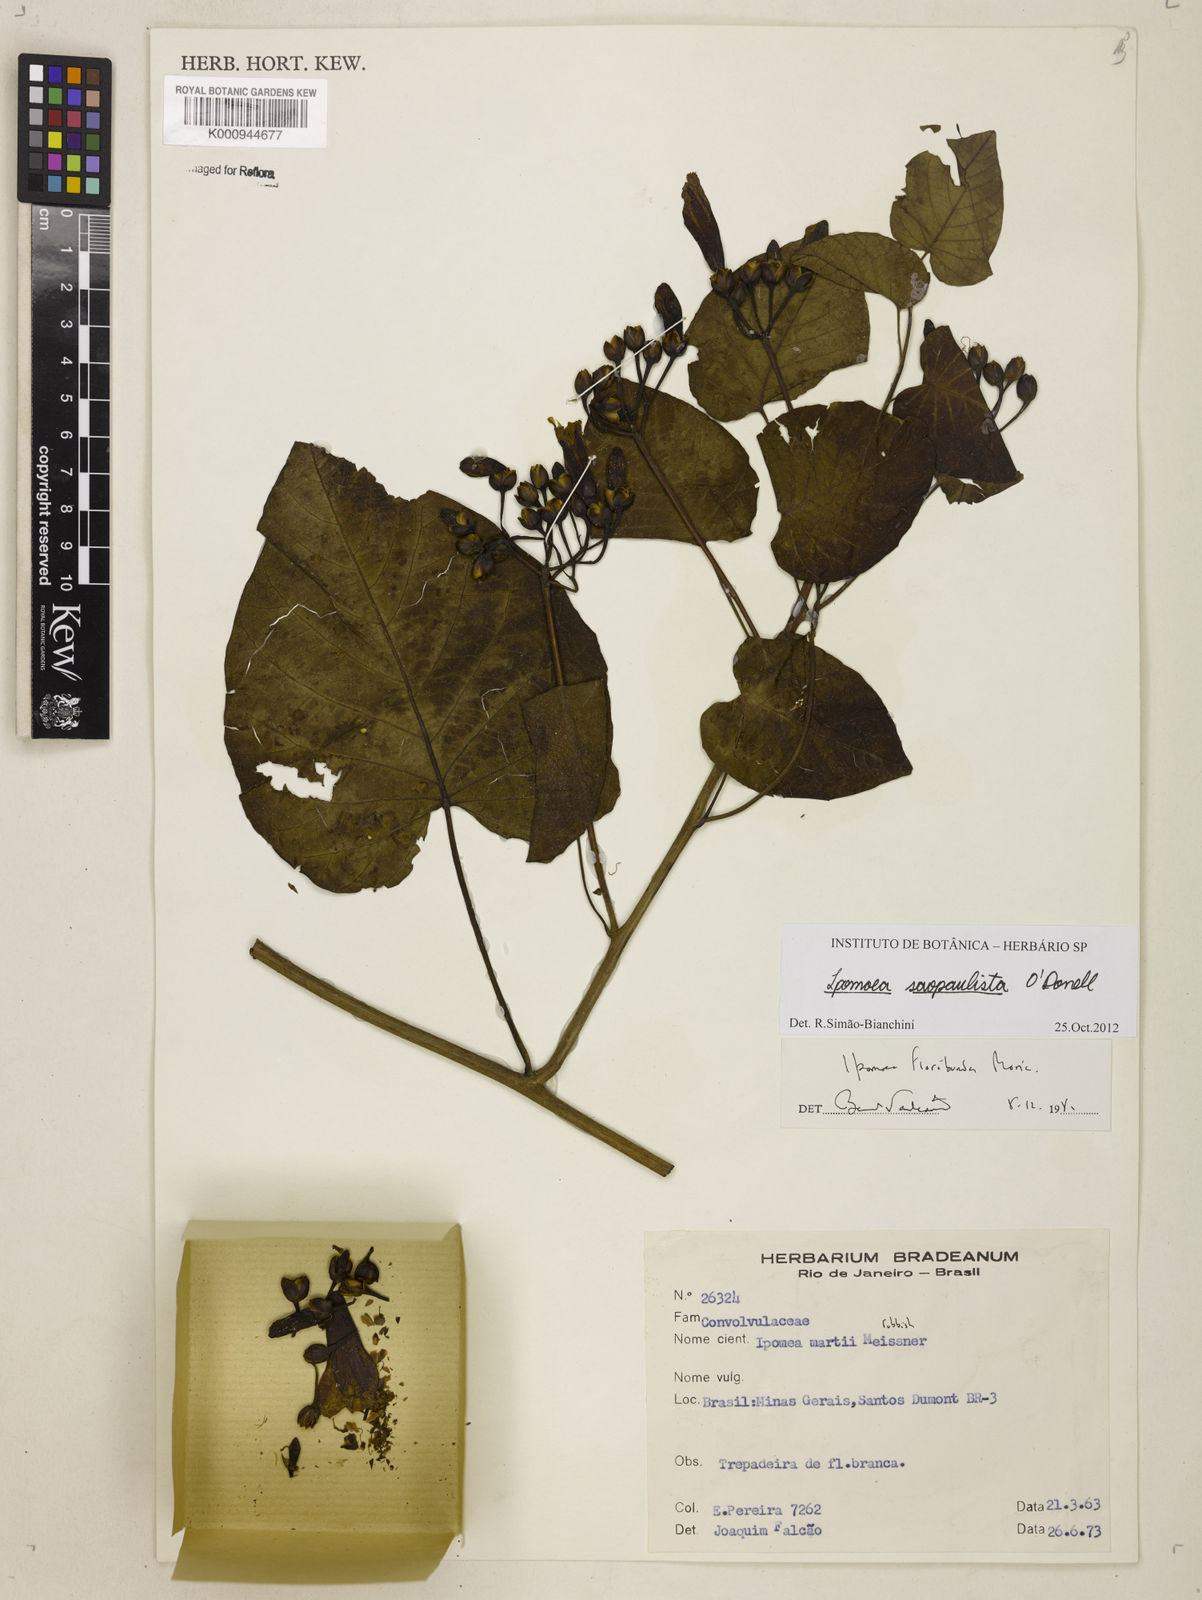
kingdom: Plantae
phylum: Tracheophyta
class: Magnoliopsida
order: Solanales
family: Convolvulaceae
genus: Ipomoea
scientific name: Ipomoea
